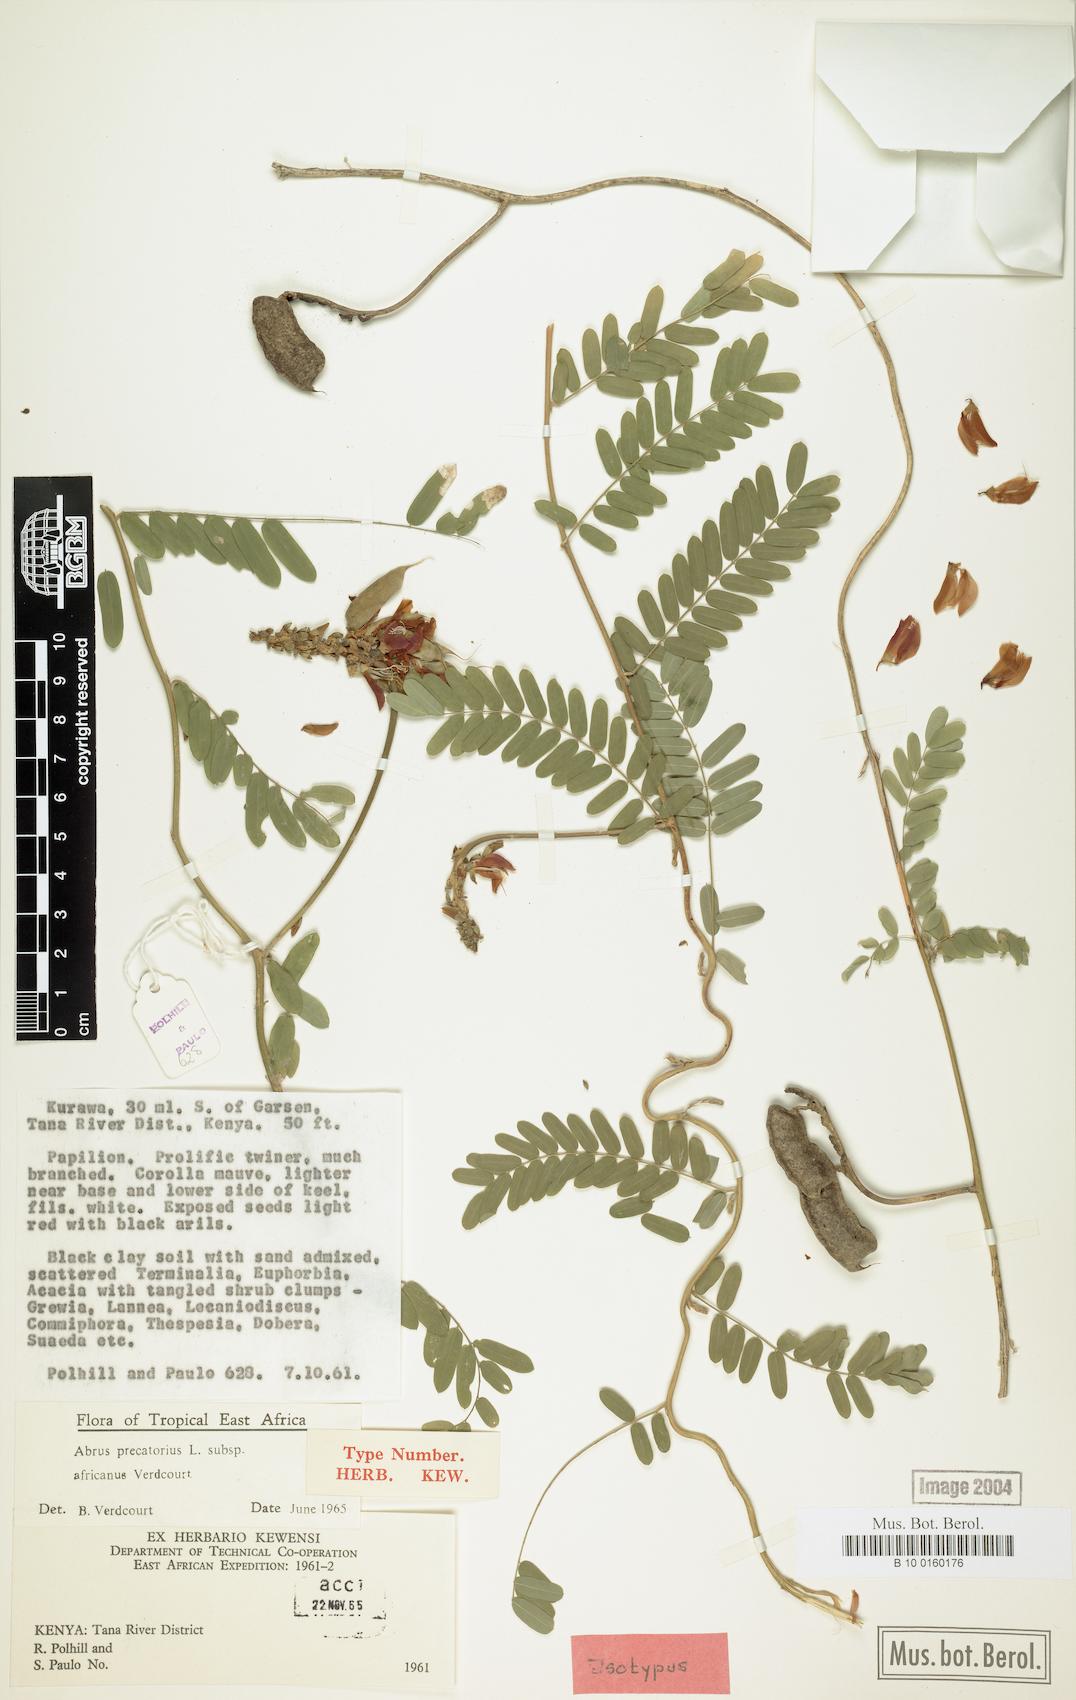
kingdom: Plantae
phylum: Tracheophyta
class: Magnoliopsida
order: Fabales
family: Fabaceae
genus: Abrus
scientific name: Abrus precatorius
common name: Rosarypea
